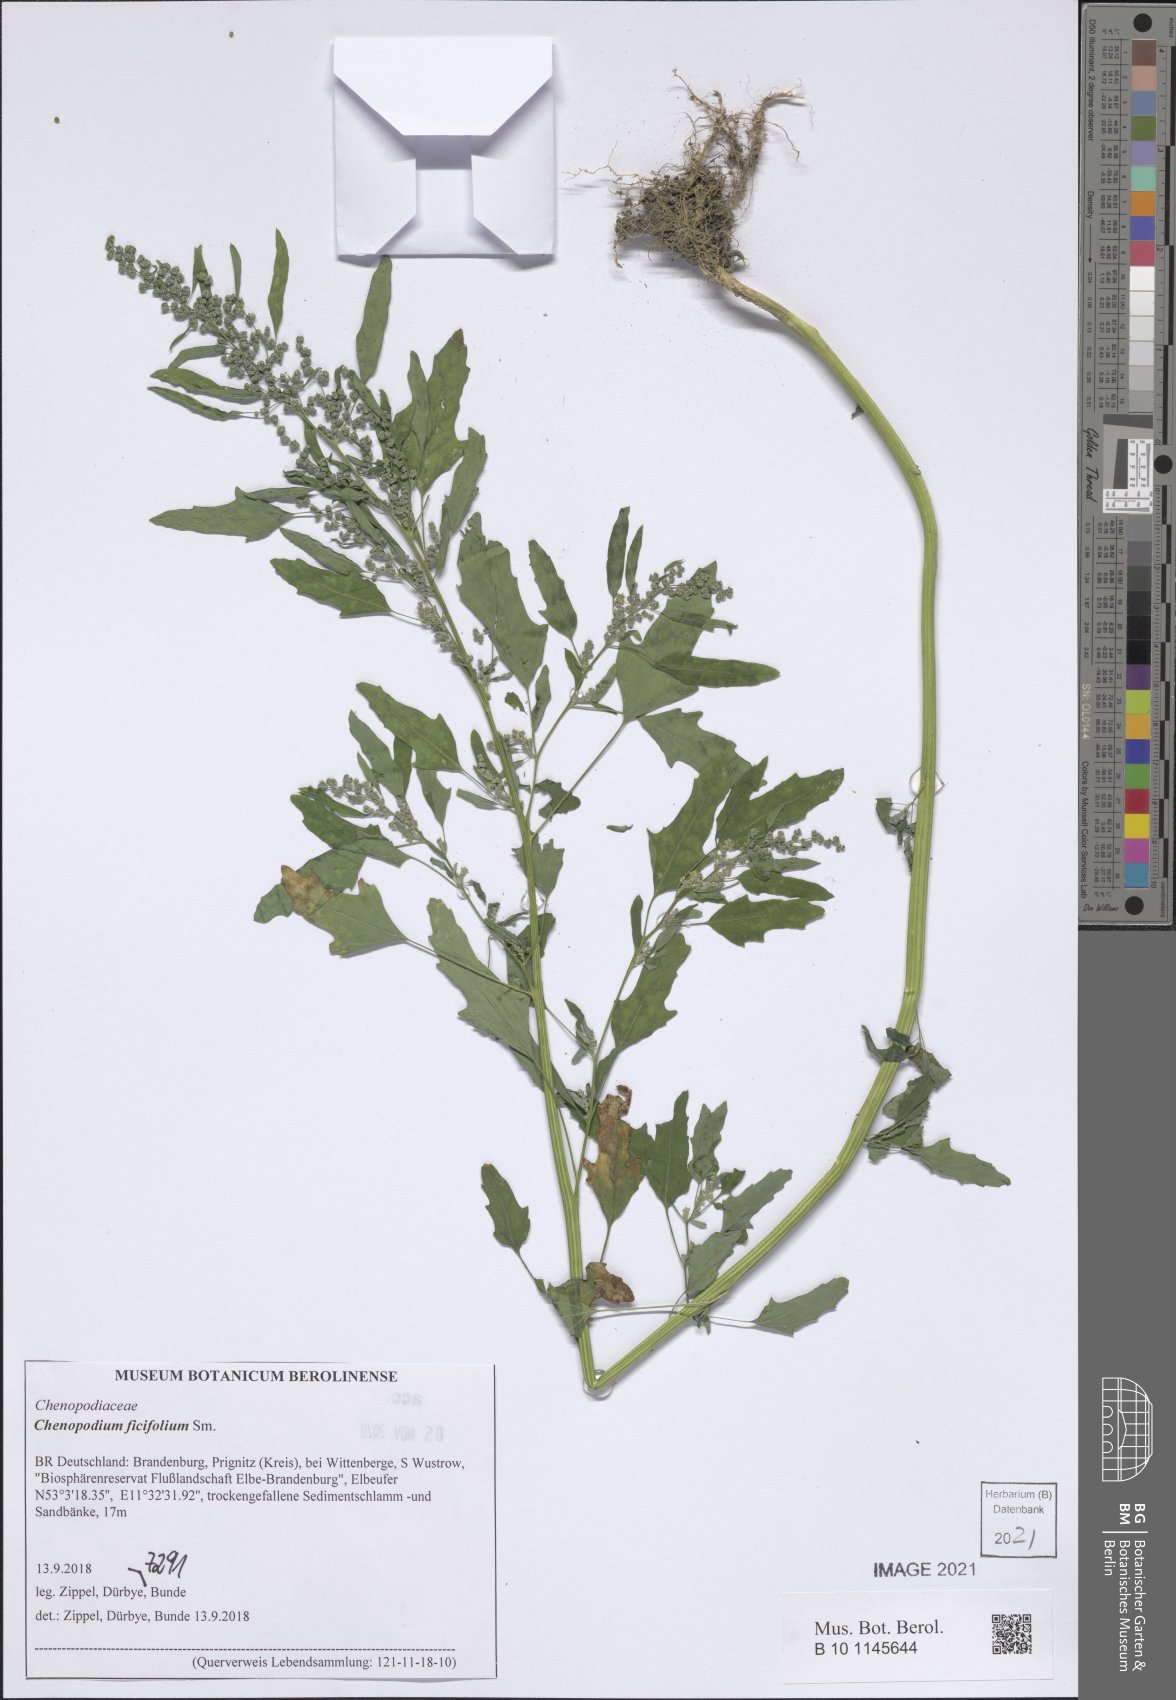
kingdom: Plantae
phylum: Tracheophyta
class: Magnoliopsida
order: Caryophyllales
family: Amaranthaceae
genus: Chenopodium
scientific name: Chenopodium ficifolium
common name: Fig-leaved goosefoot
